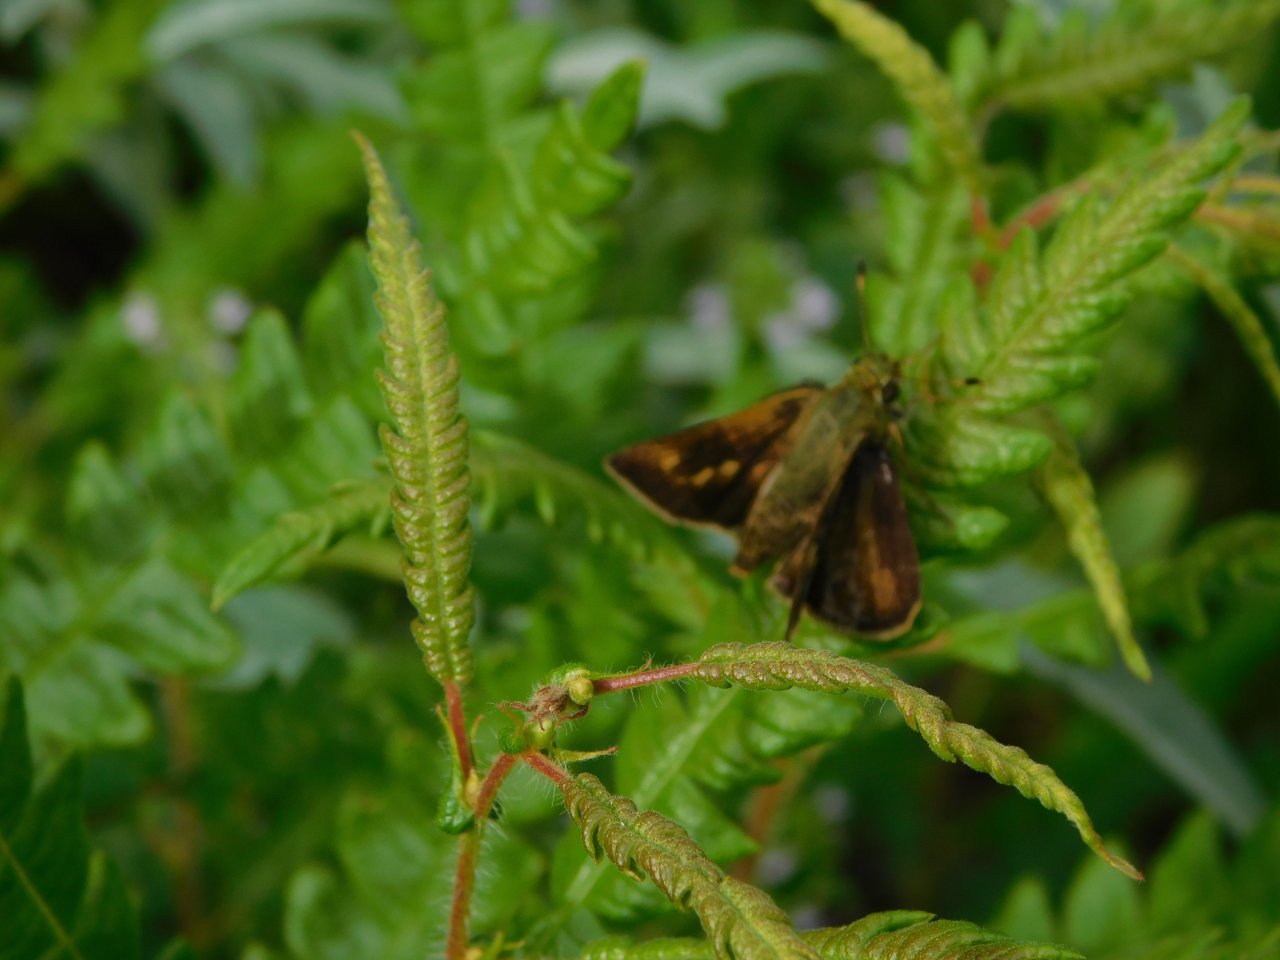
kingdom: Animalia
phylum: Arthropoda
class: Insecta
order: Lepidoptera
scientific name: Lepidoptera
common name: Butterflies
